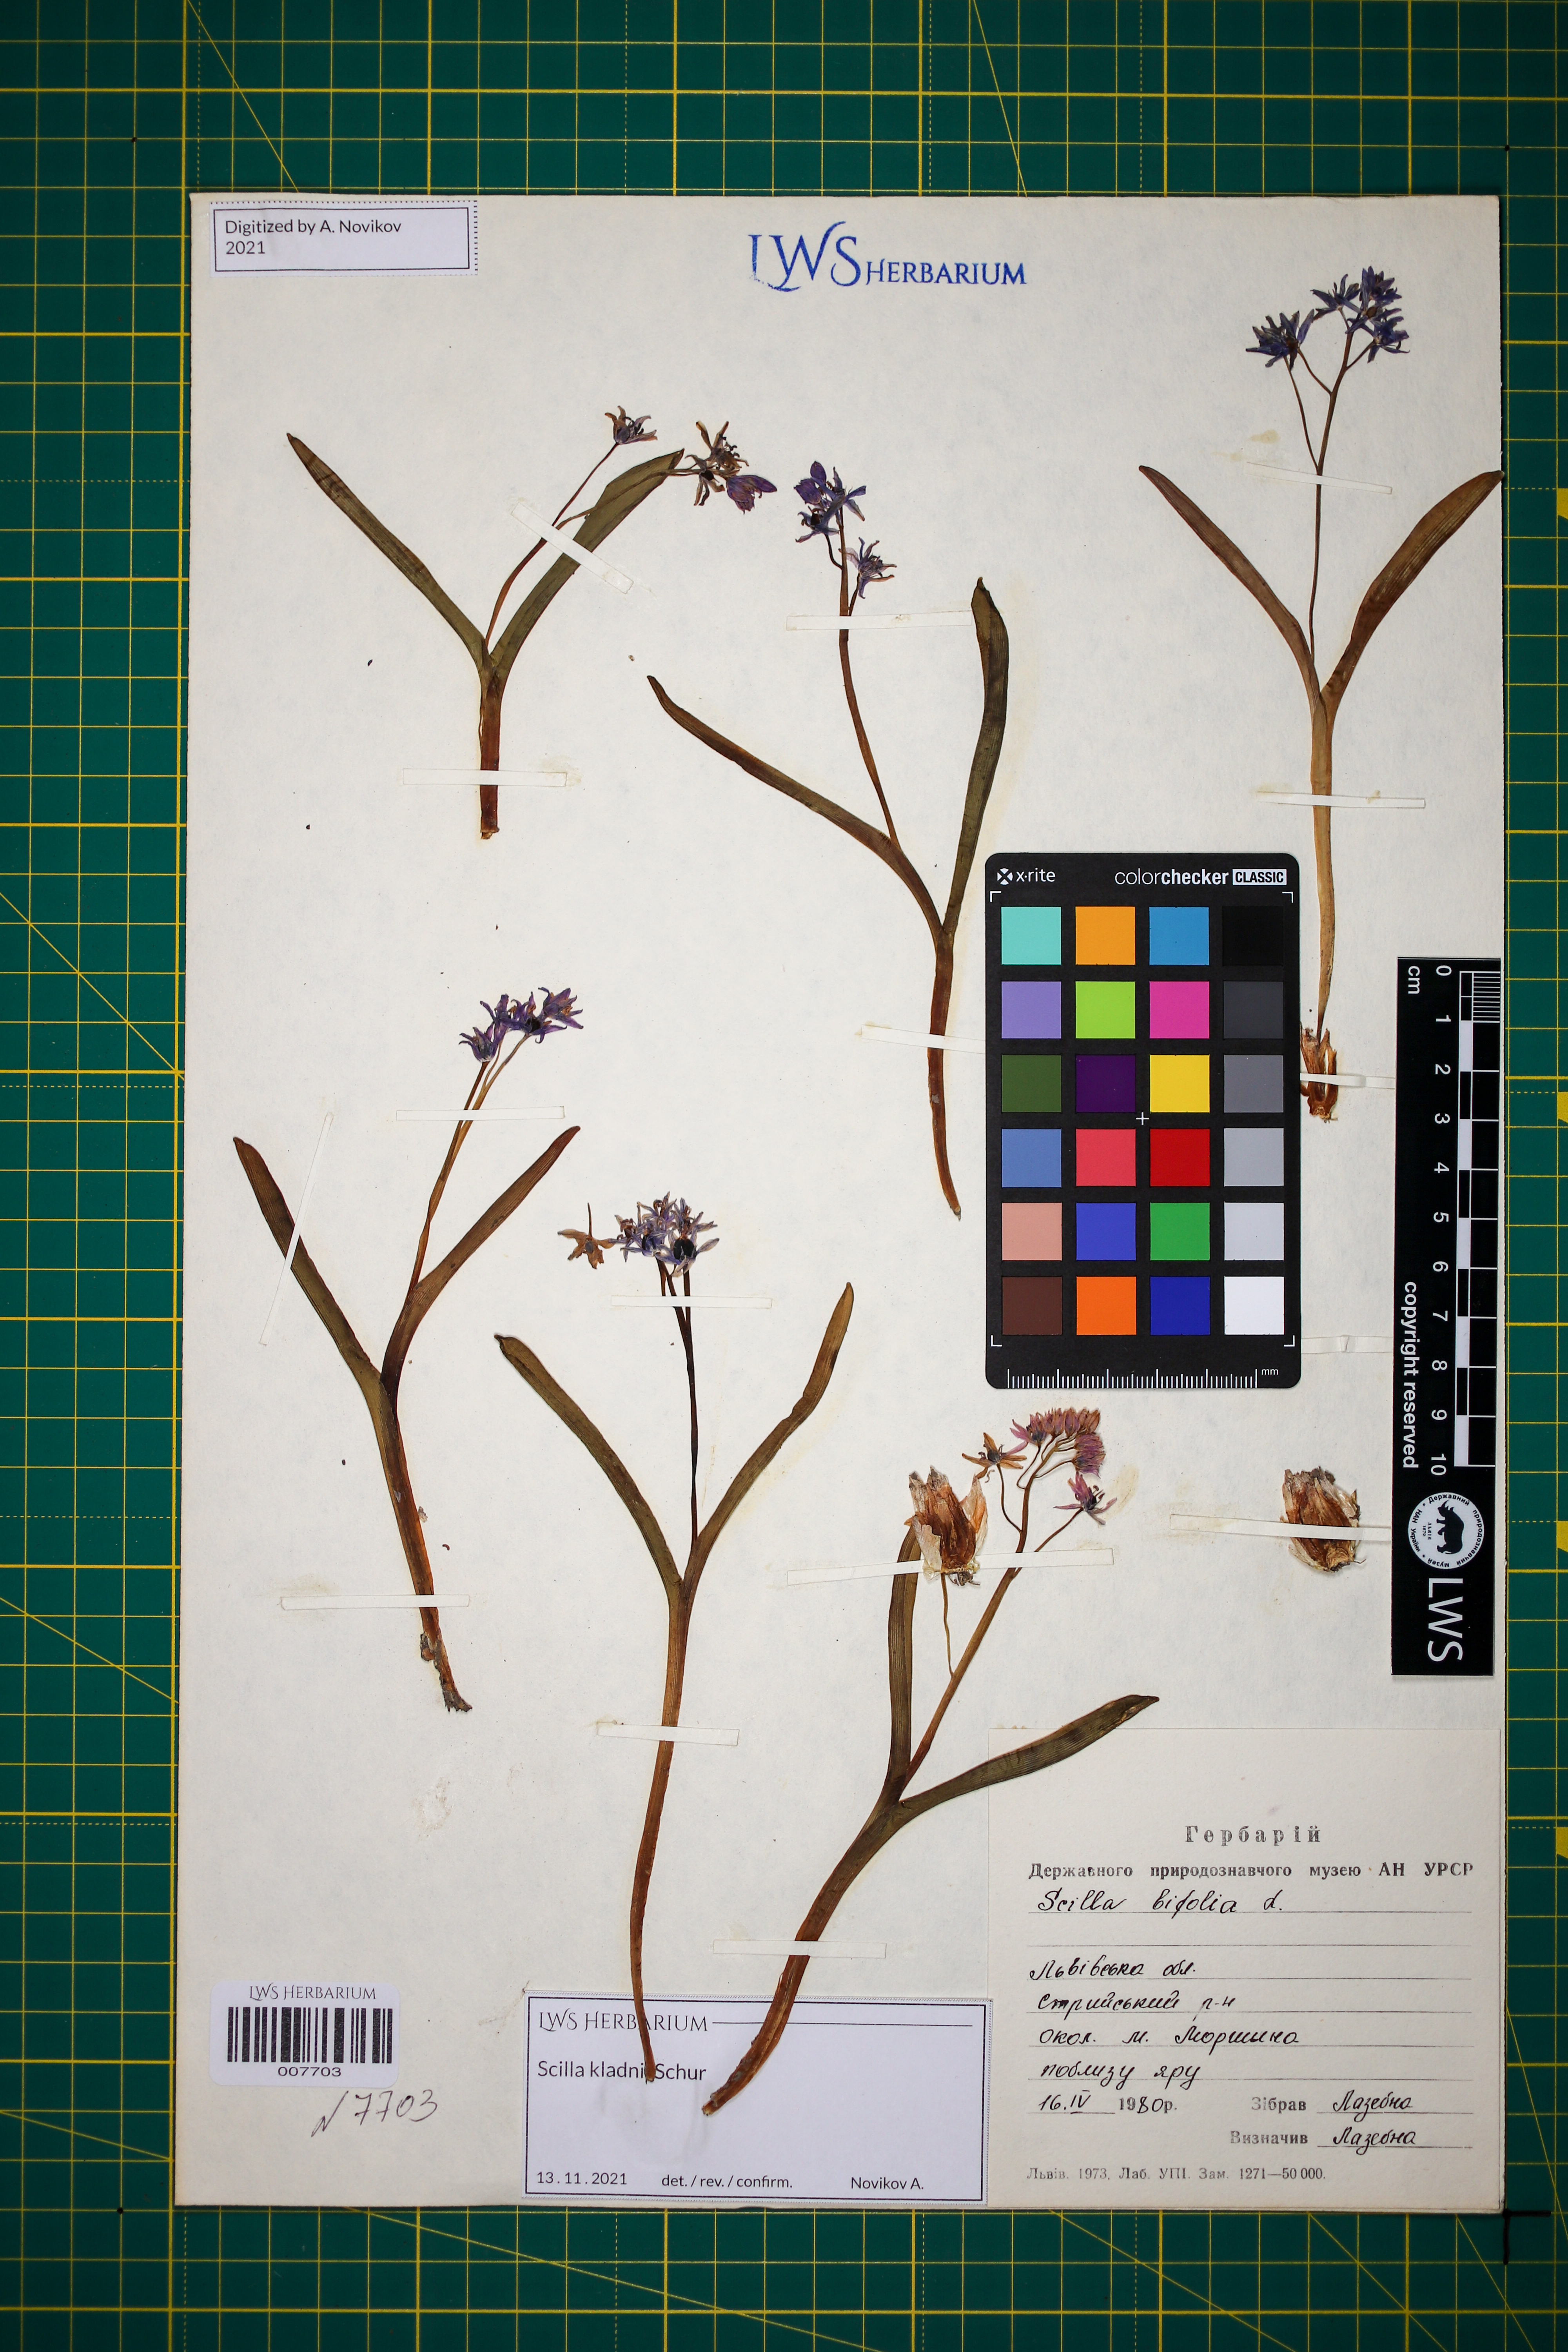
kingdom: Plantae
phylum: Tracheophyta
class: Liliopsida
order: Asparagales
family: Asparagaceae
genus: Scilla
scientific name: Scilla kladnii
